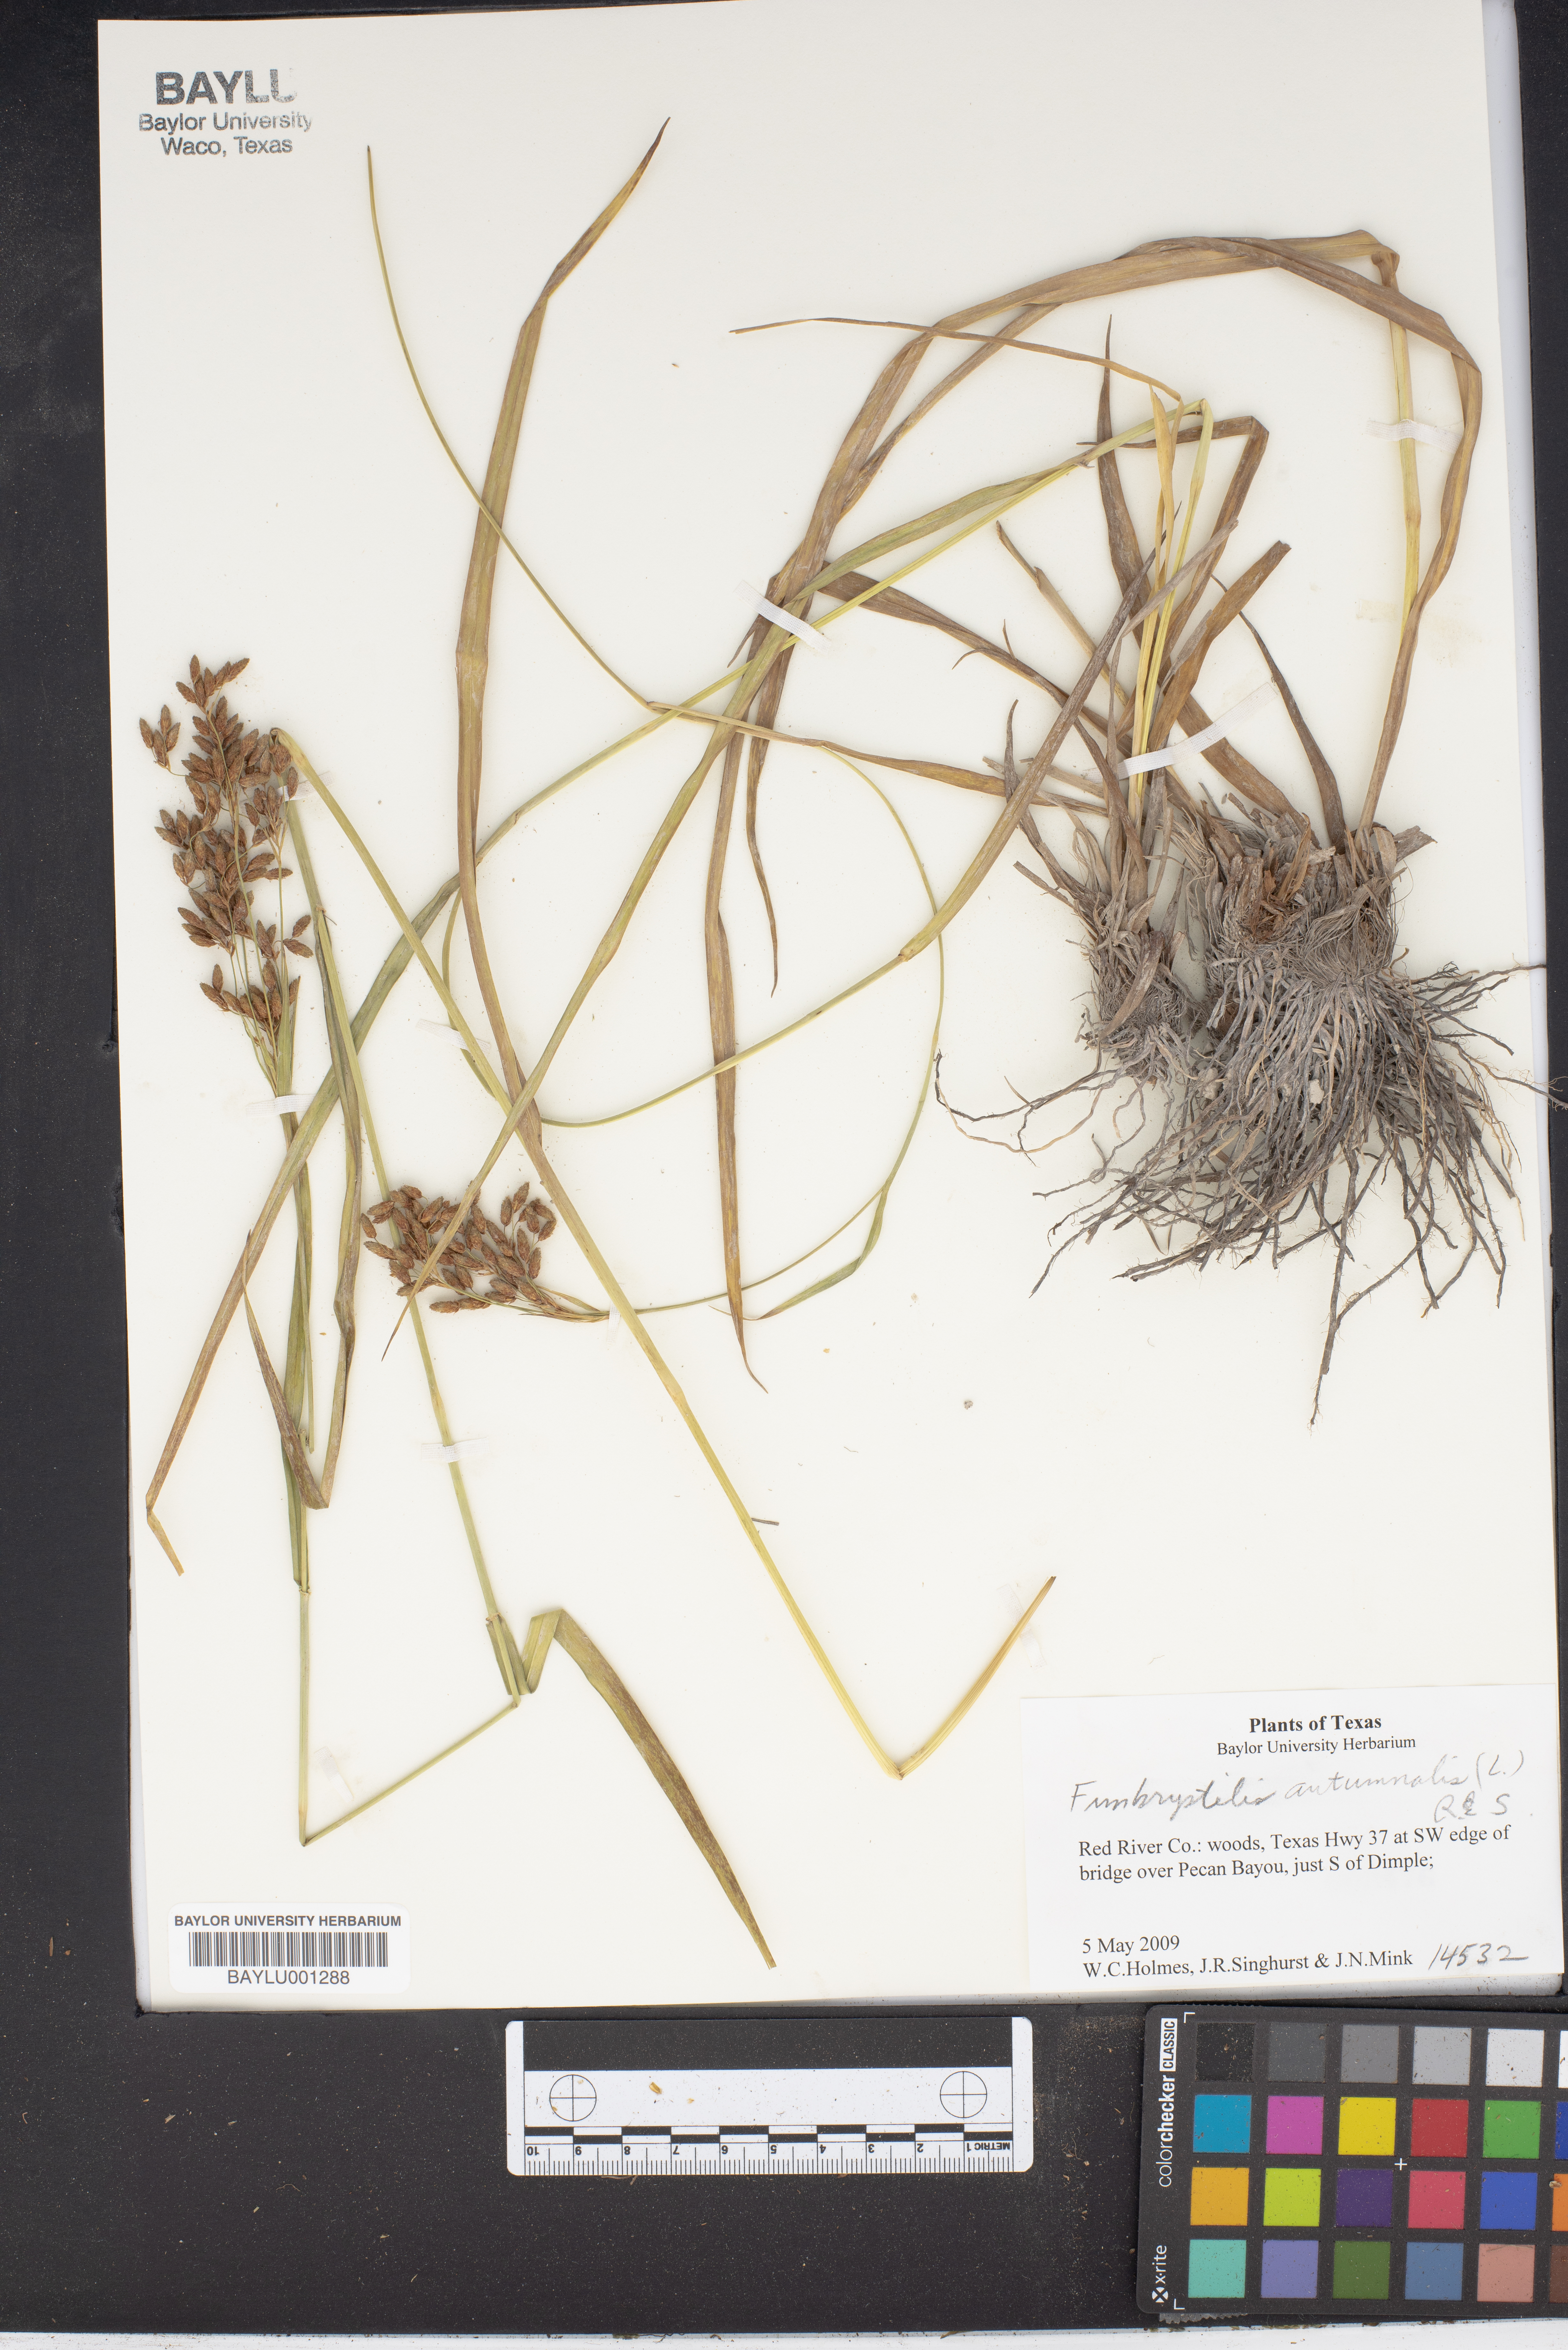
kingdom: Plantae
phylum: Tracheophyta
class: Liliopsida
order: Poales
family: Cyperaceae
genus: Fimbristylis
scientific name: Fimbristylis autumnalis
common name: Slender fimbristylis
